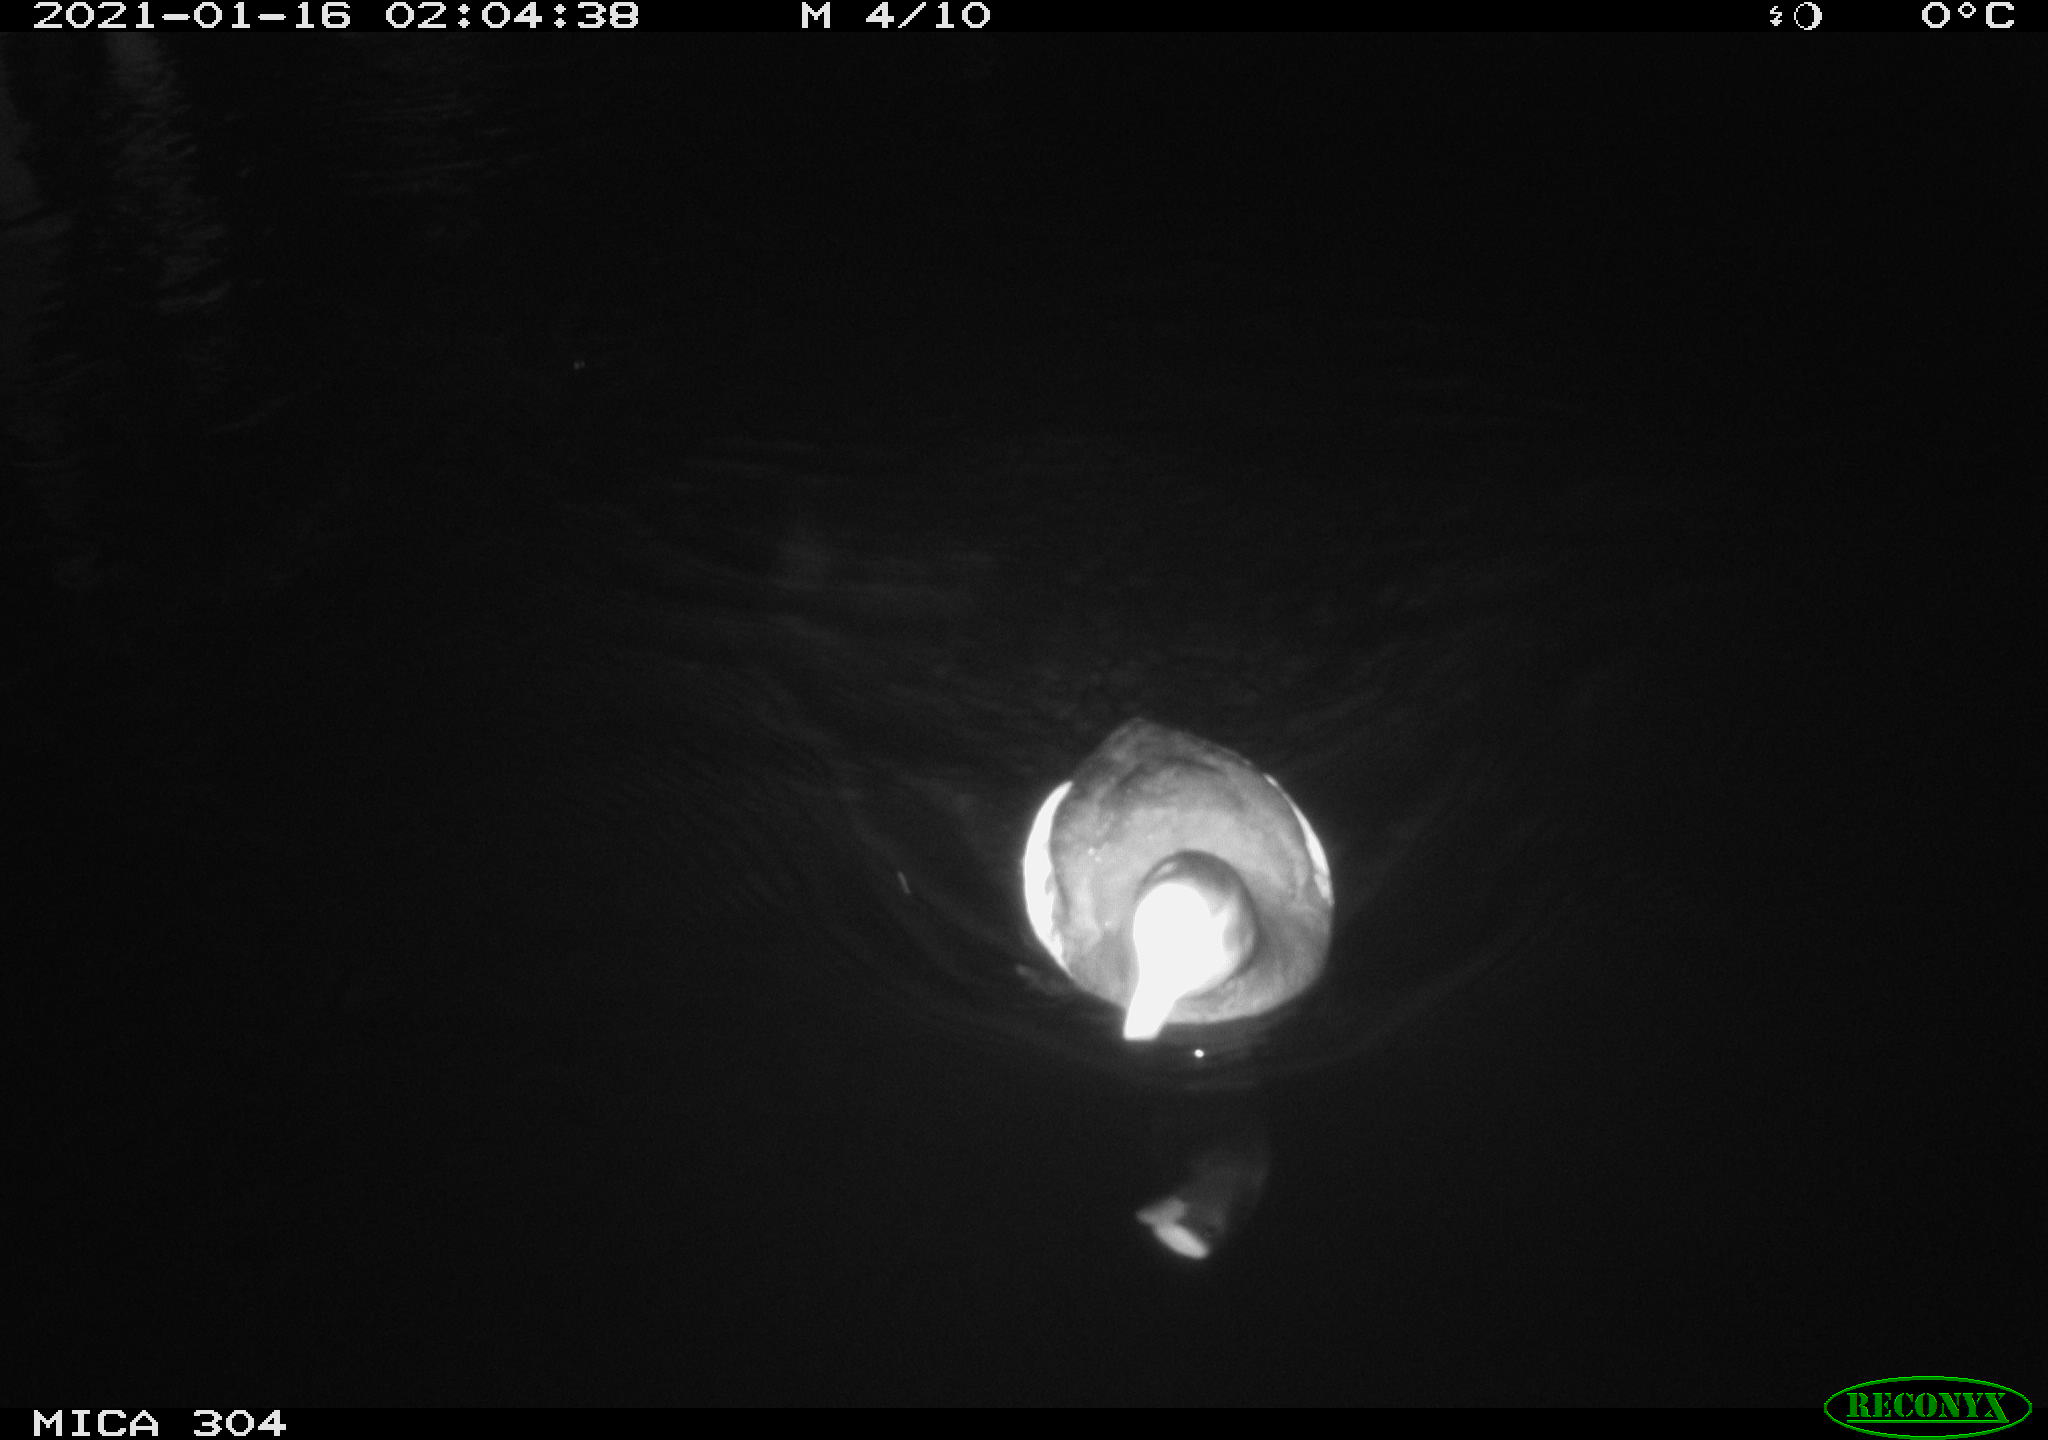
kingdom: Animalia
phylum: Chordata
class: Aves
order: Gruiformes
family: Rallidae
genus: Fulica
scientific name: Fulica atra
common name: Eurasian coot
